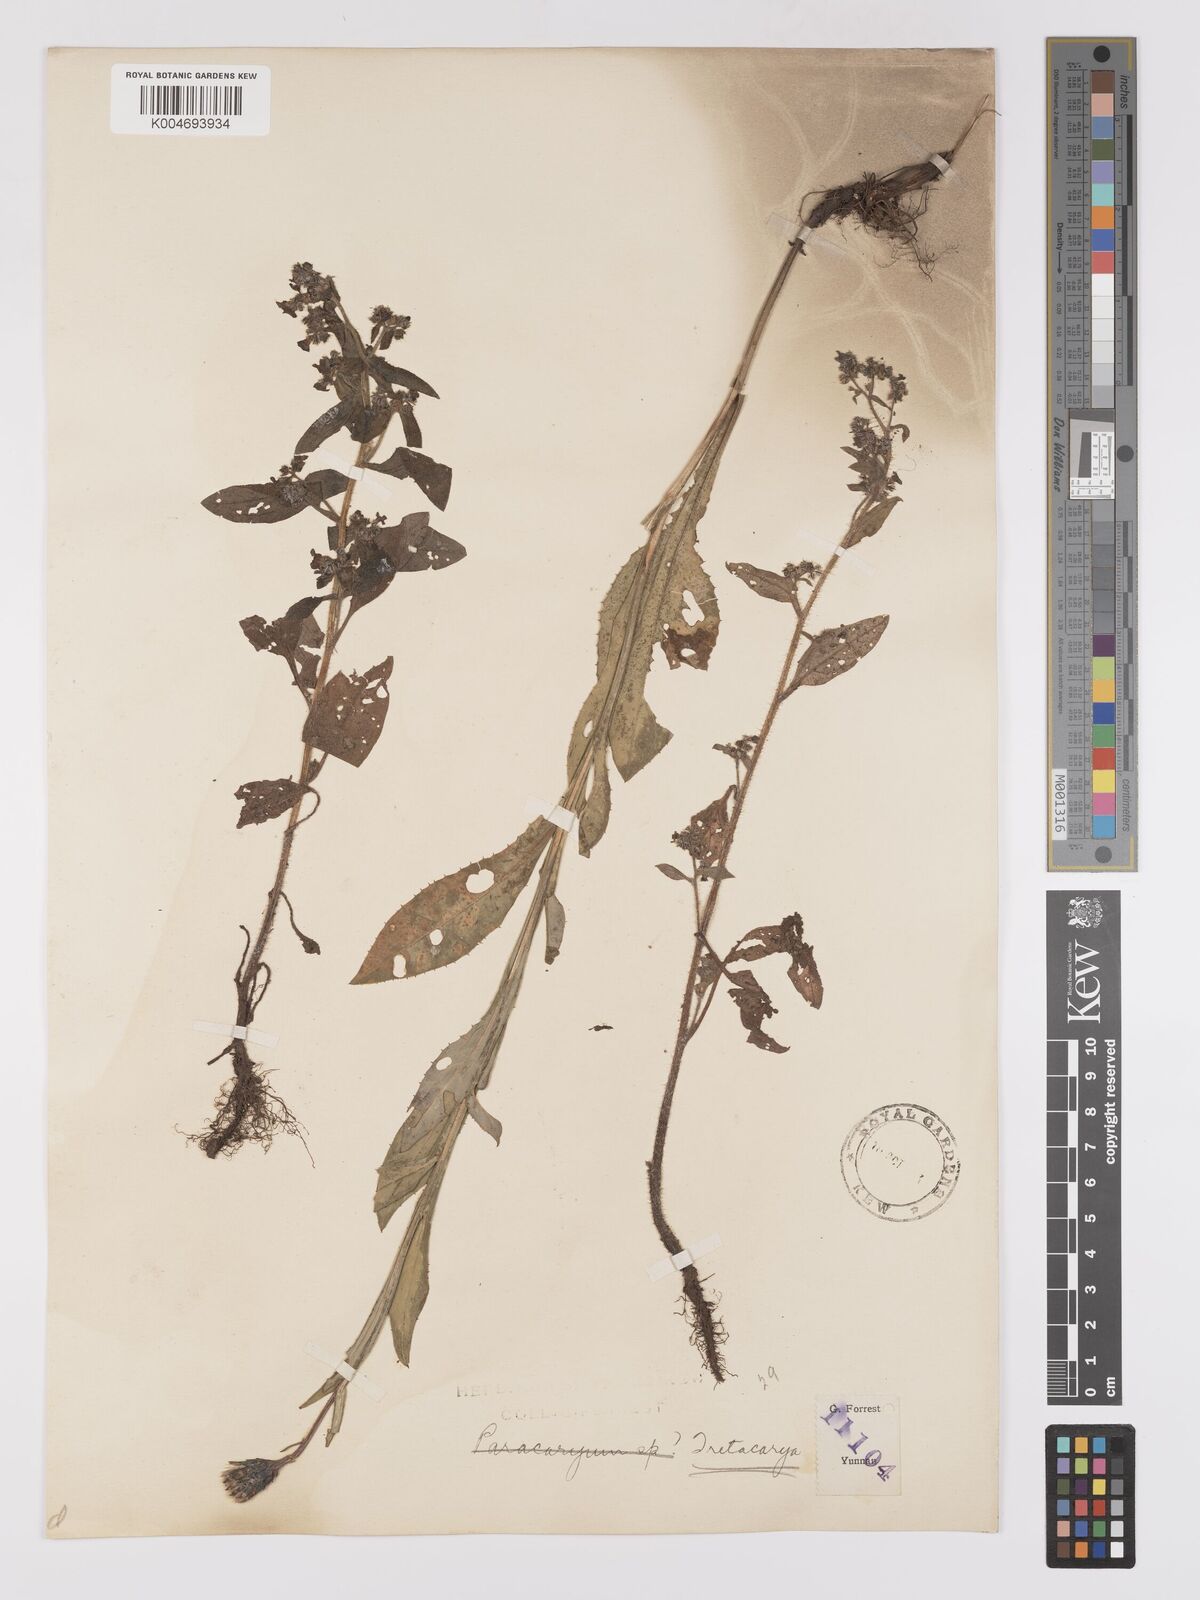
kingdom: Plantae
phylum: Tracheophyta
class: Magnoliopsida
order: Boraginales
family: Boraginaceae
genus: Microula
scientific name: Microula
